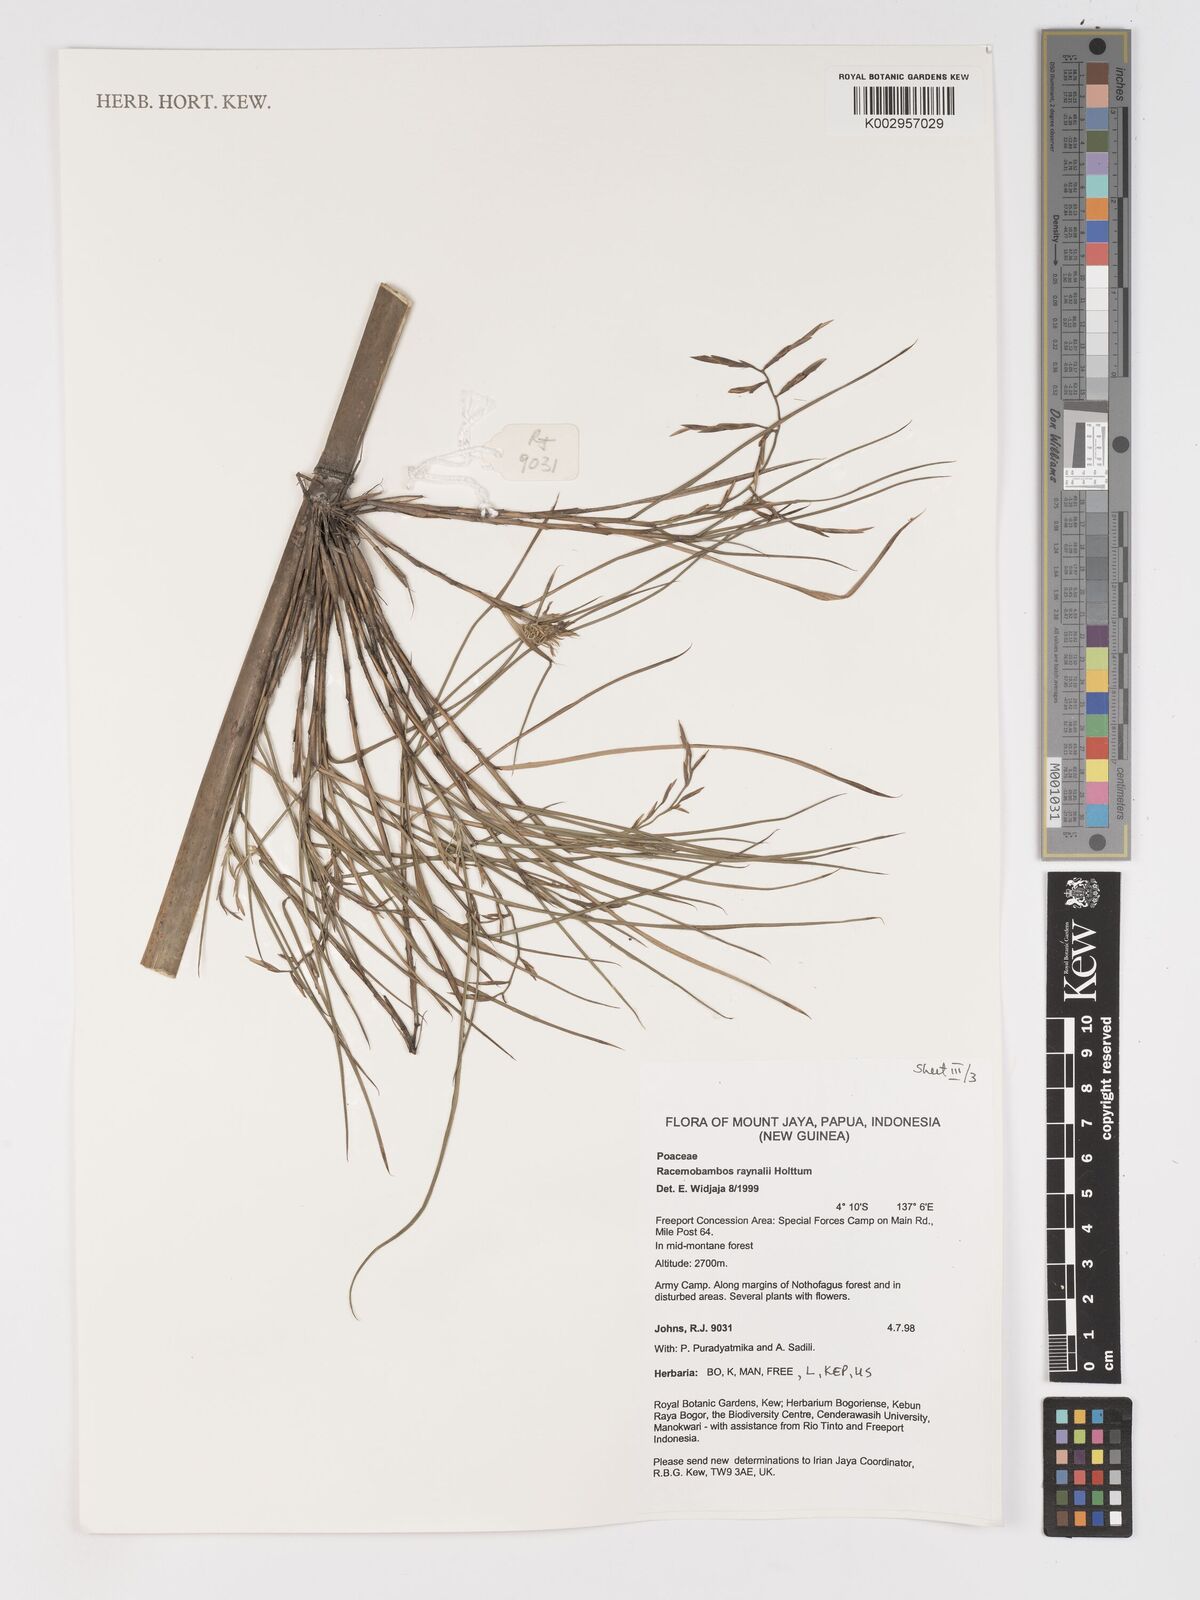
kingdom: Plantae
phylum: Tracheophyta
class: Liliopsida
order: Poales
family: Poaceae
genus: Racemobambos
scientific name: Racemobambos raynalii
